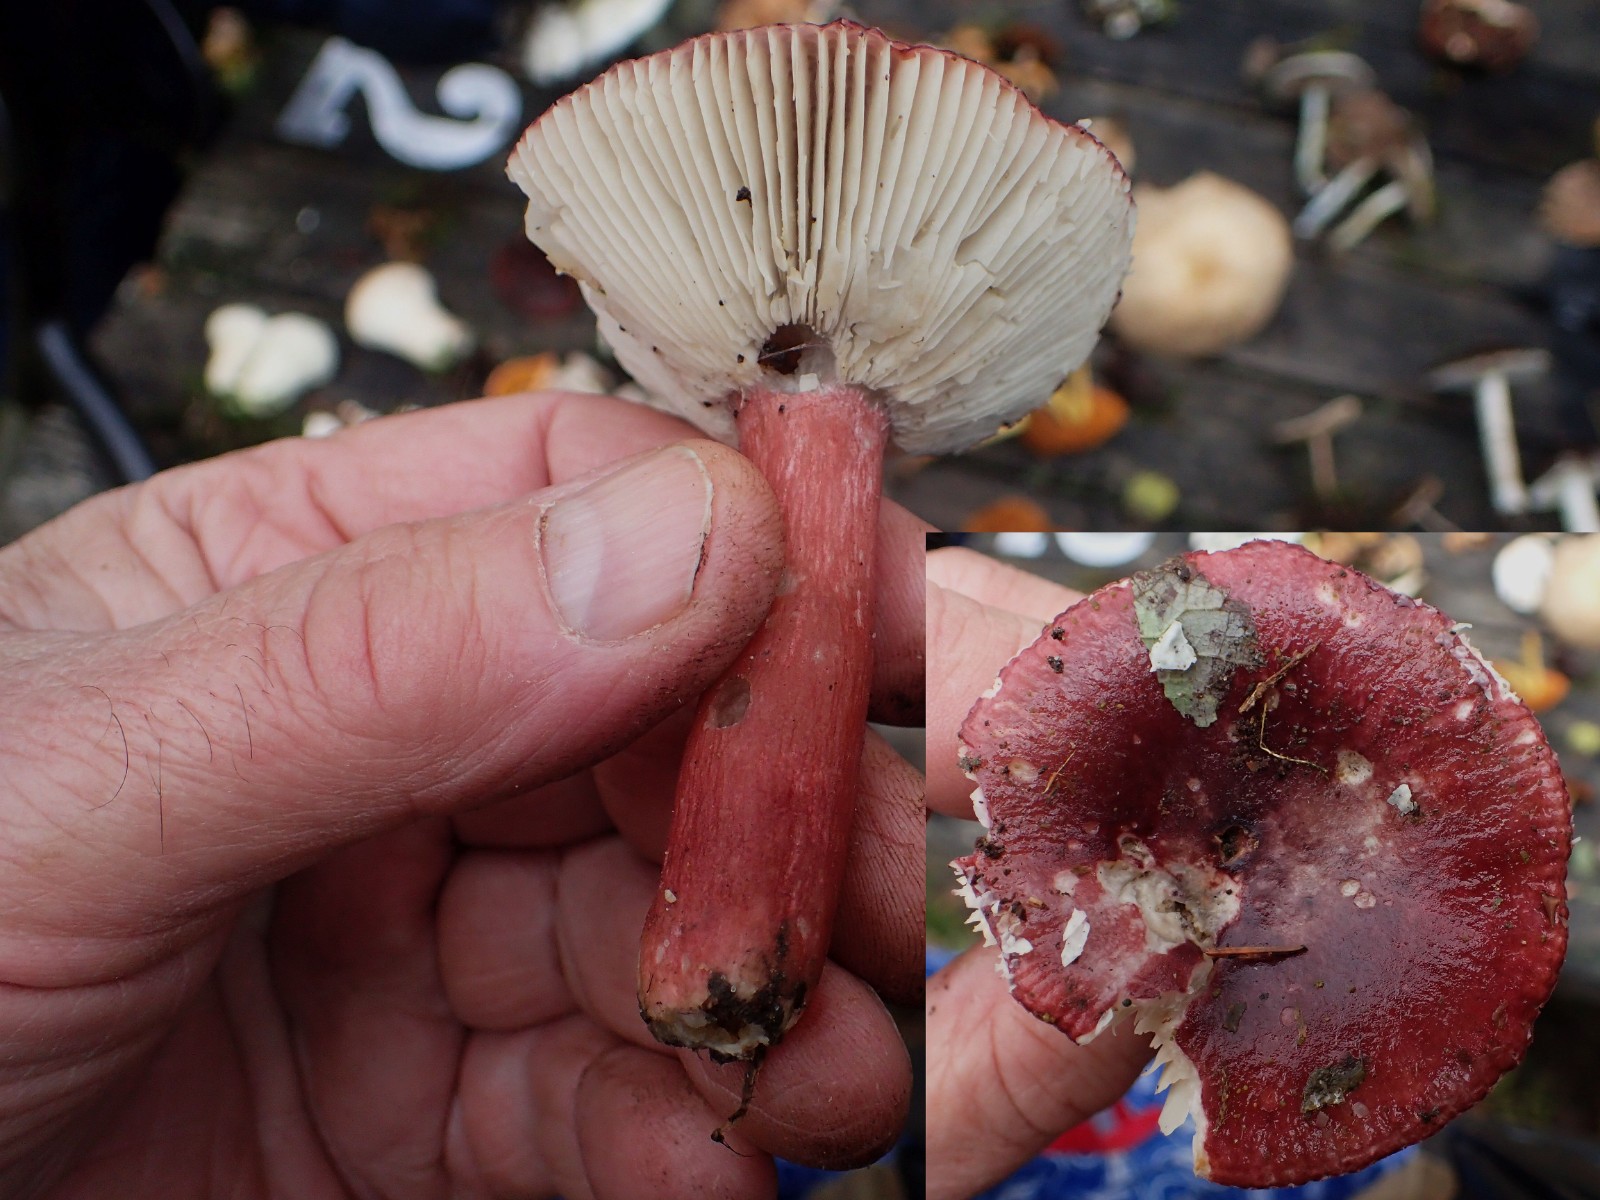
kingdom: Fungi
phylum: Basidiomycota
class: Agaricomycetes
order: Russulales
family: Russulaceae
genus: Russula
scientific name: Russula queletii
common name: Quélets skørhat
